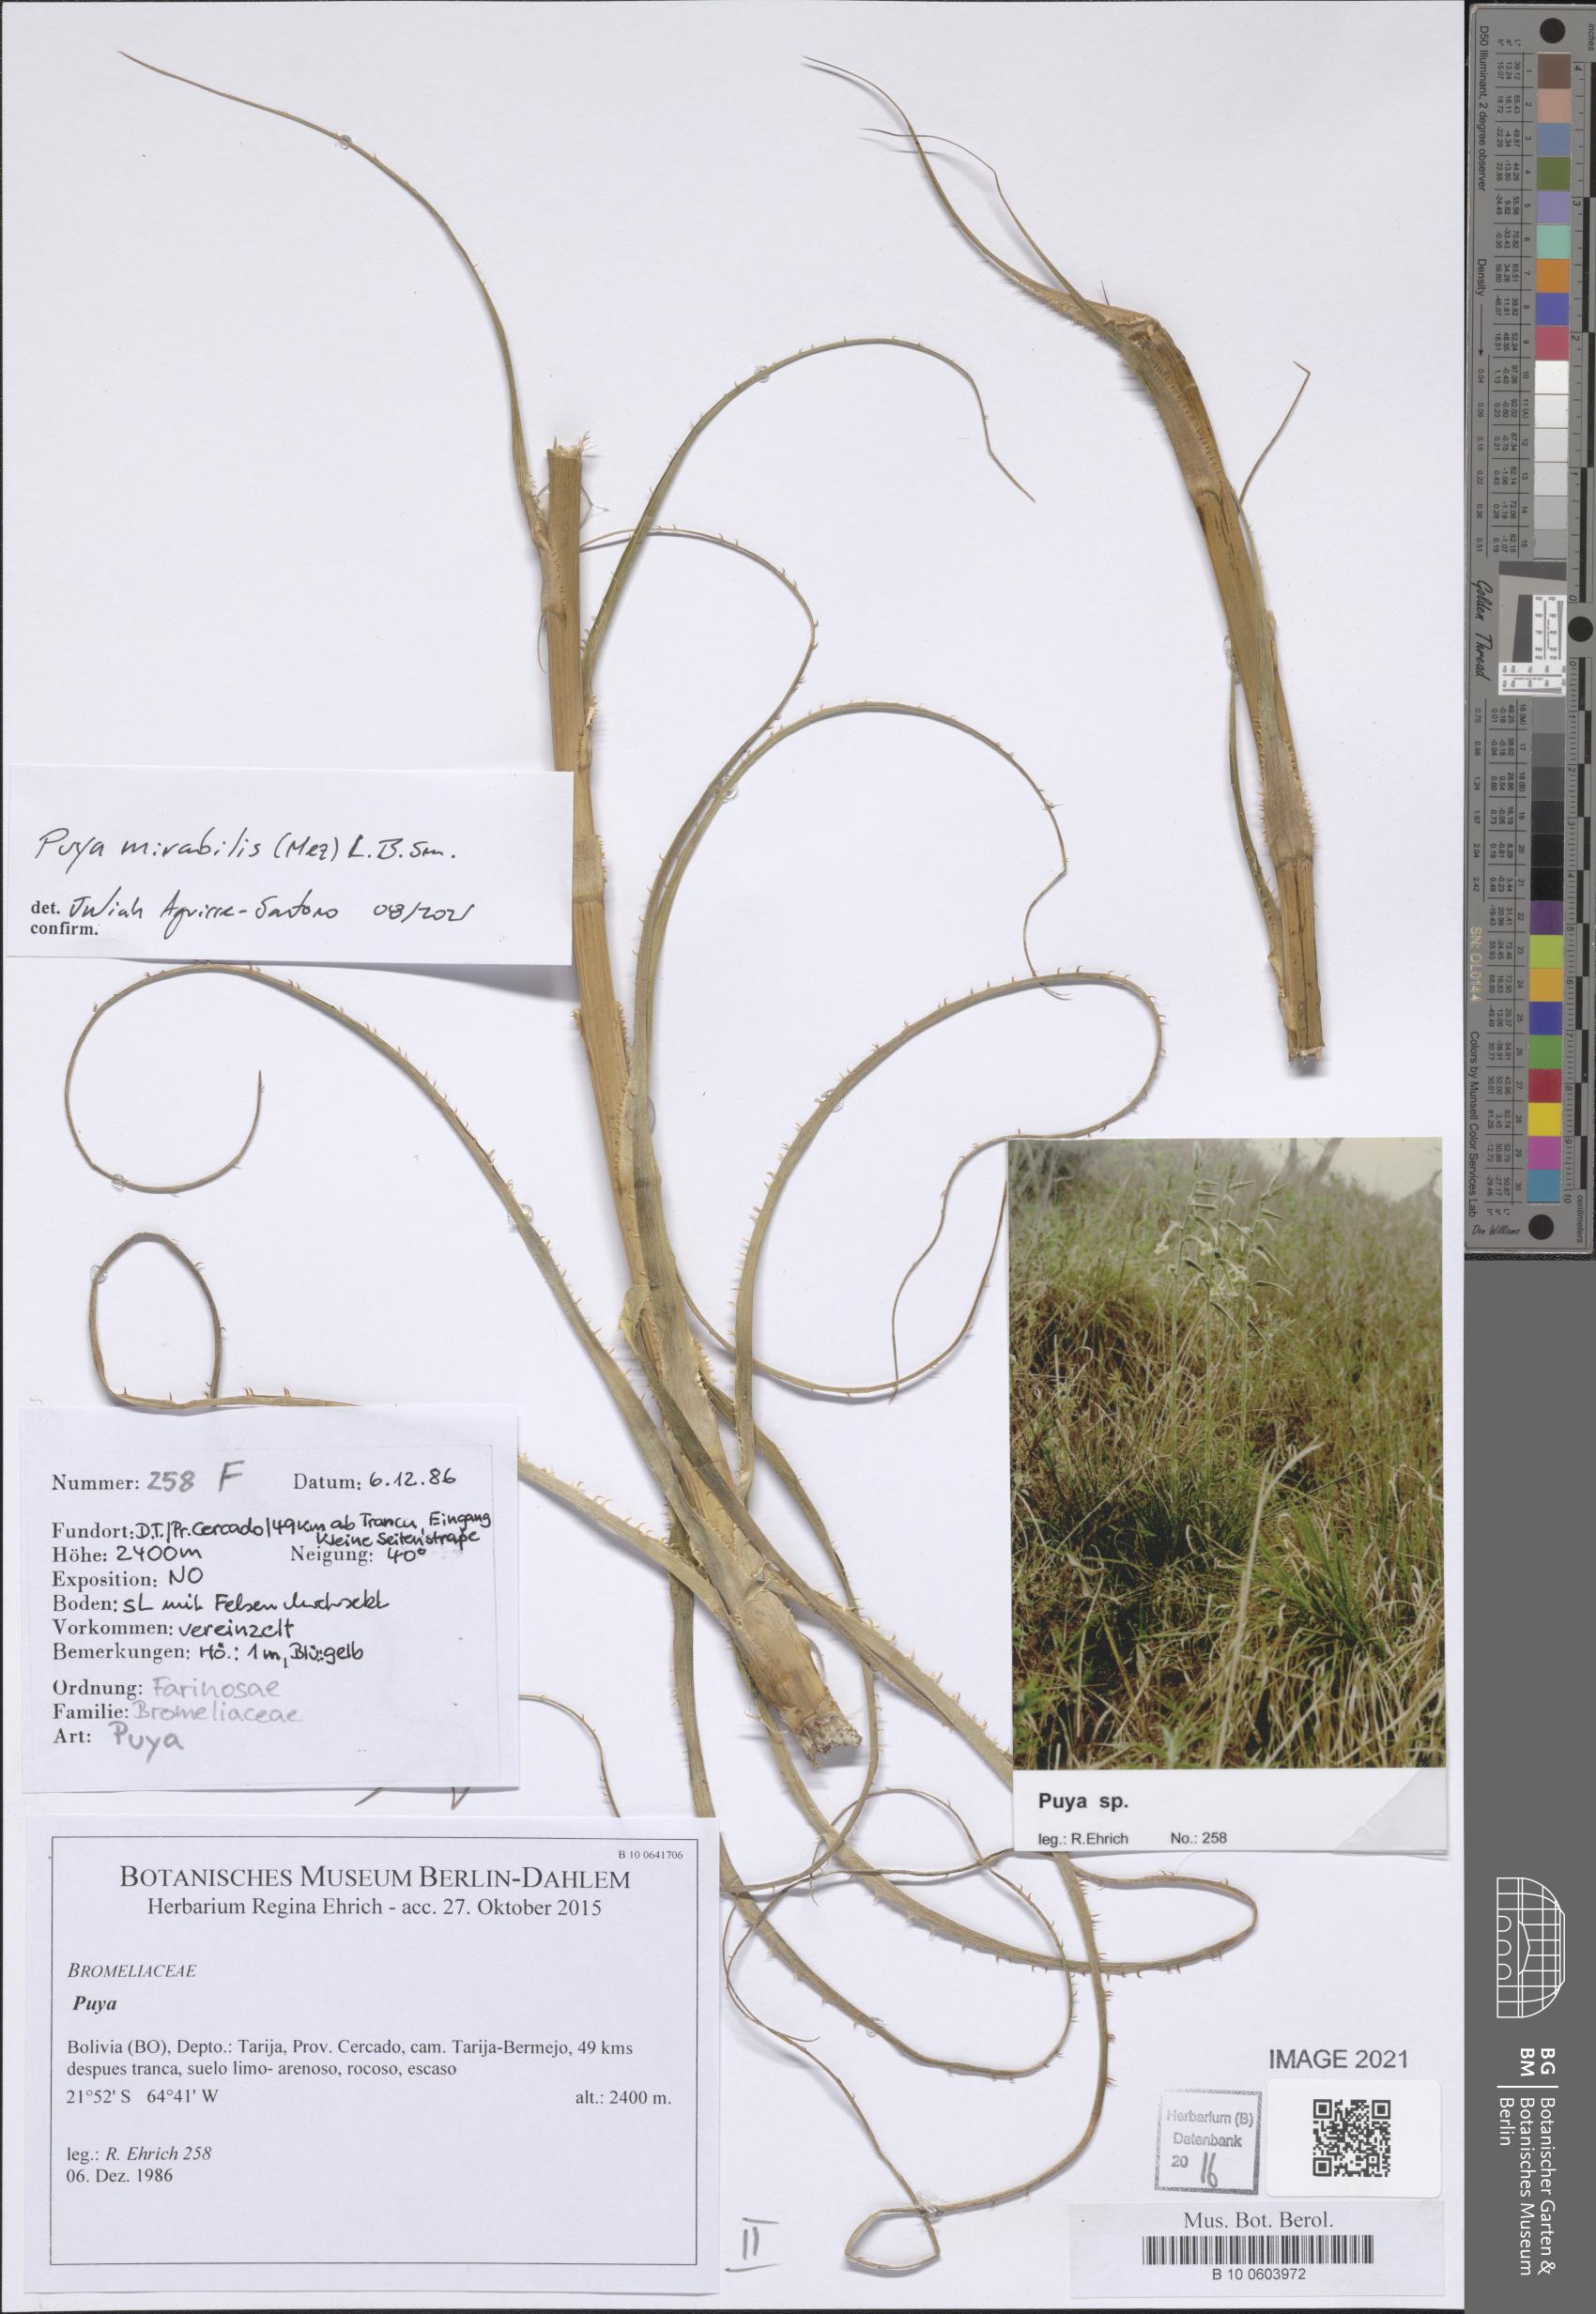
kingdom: Plantae
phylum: Tracheophyta
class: Liliopsida
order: Poales
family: Bromeliaceae
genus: Puya
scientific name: Puya mirabilis
